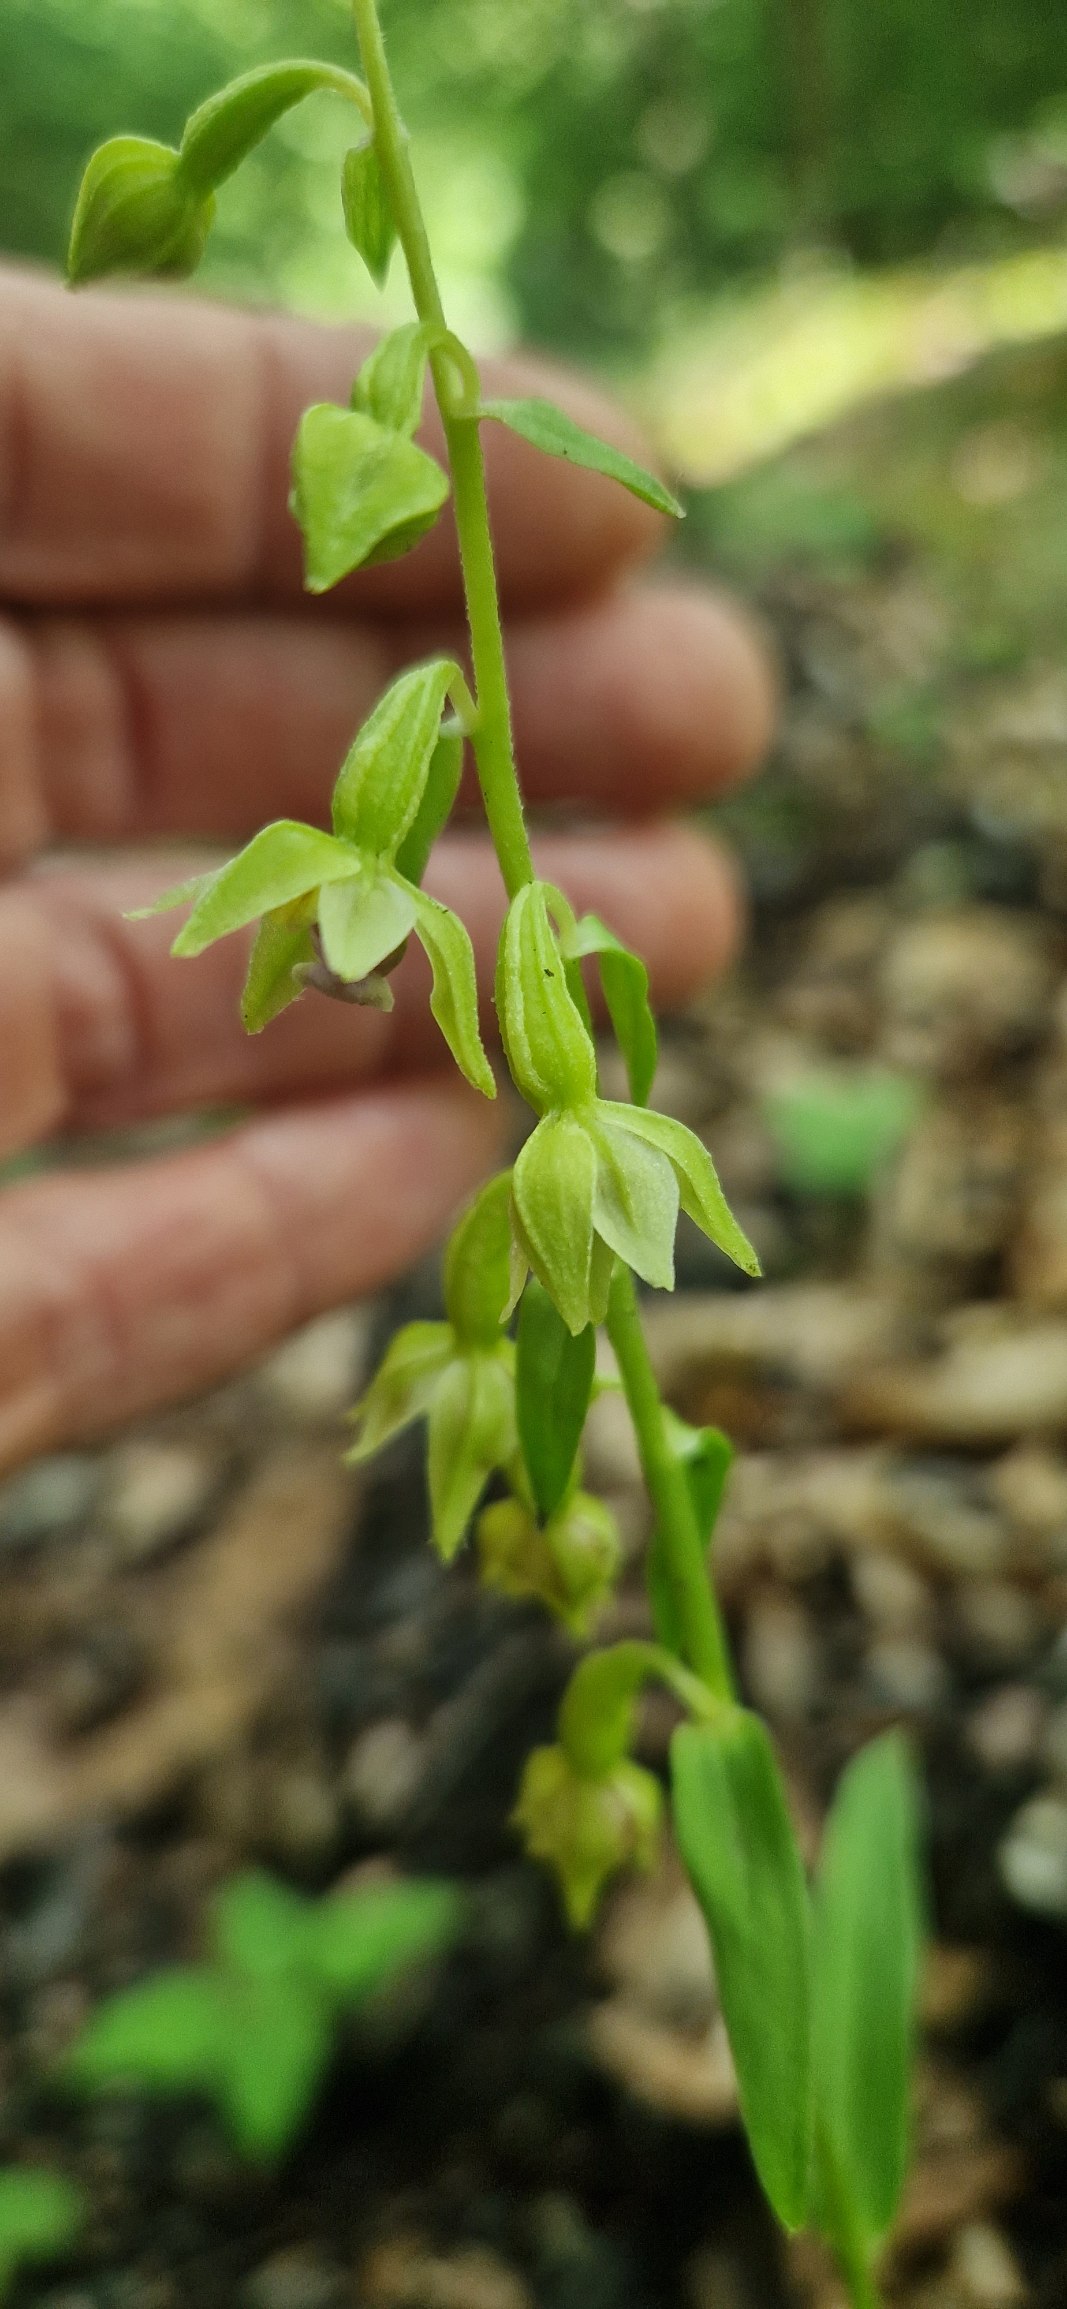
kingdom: Plantae
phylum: Tracheophyta
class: Liliopsida
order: Asparagales
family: Orchidaceae
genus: Epipactis
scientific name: Epipactis phyllanthes
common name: Nikkende hullæbe
